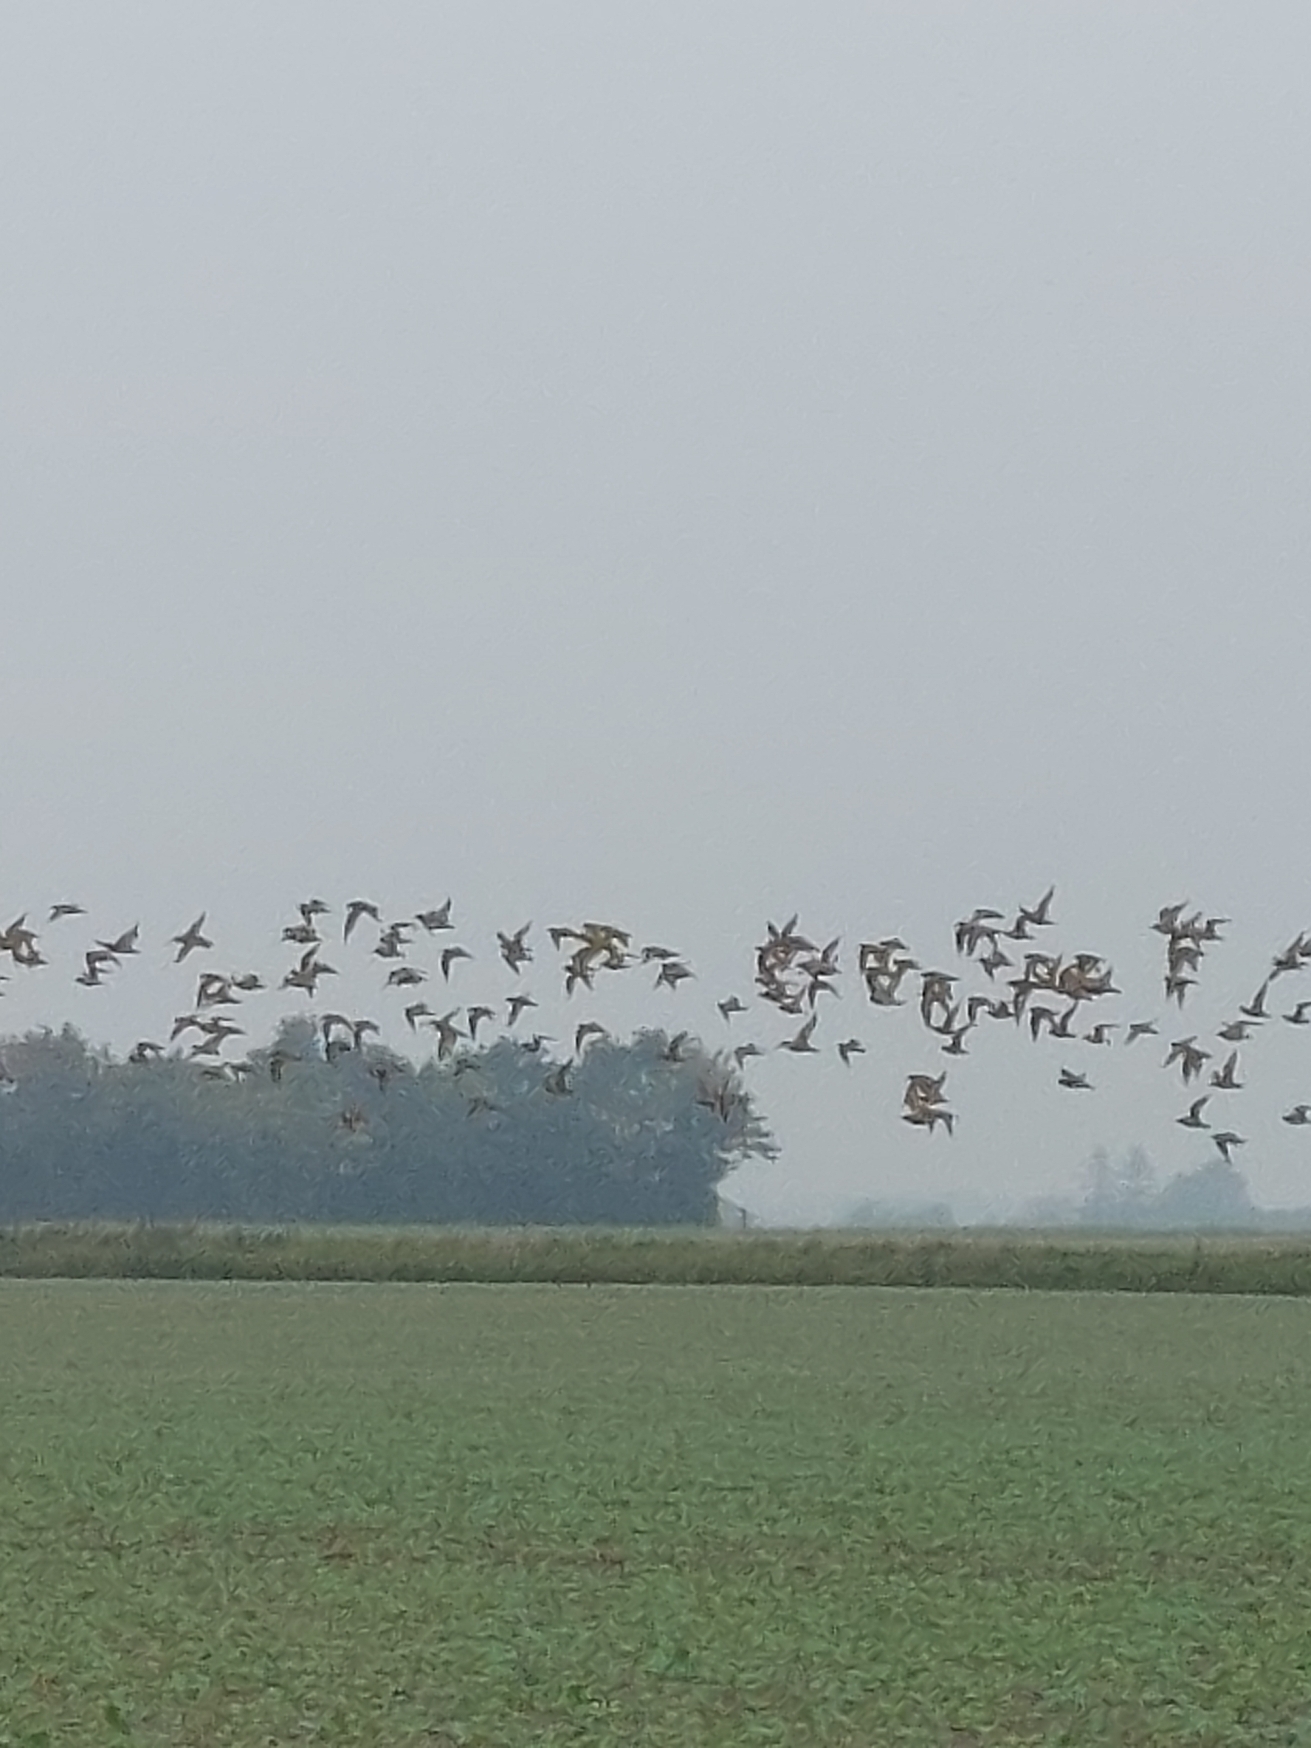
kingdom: Animalia
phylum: Chordata
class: Aves
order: Charadriiformes
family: Charadriidae
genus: Pluvialis
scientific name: Pluvialis apricaria
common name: Hjejle
